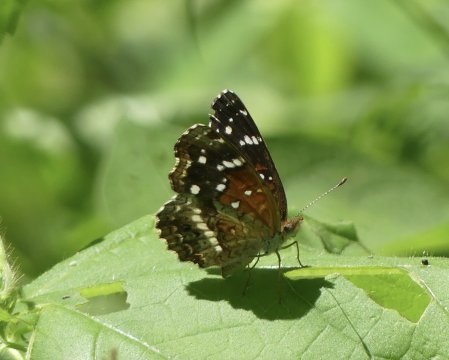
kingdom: Animalia
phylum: Arthropoda
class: Insecta
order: Lepidoptera
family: Nymphalidae
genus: Anthanassa
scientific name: Anthanassa texana
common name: Texan Crescent
